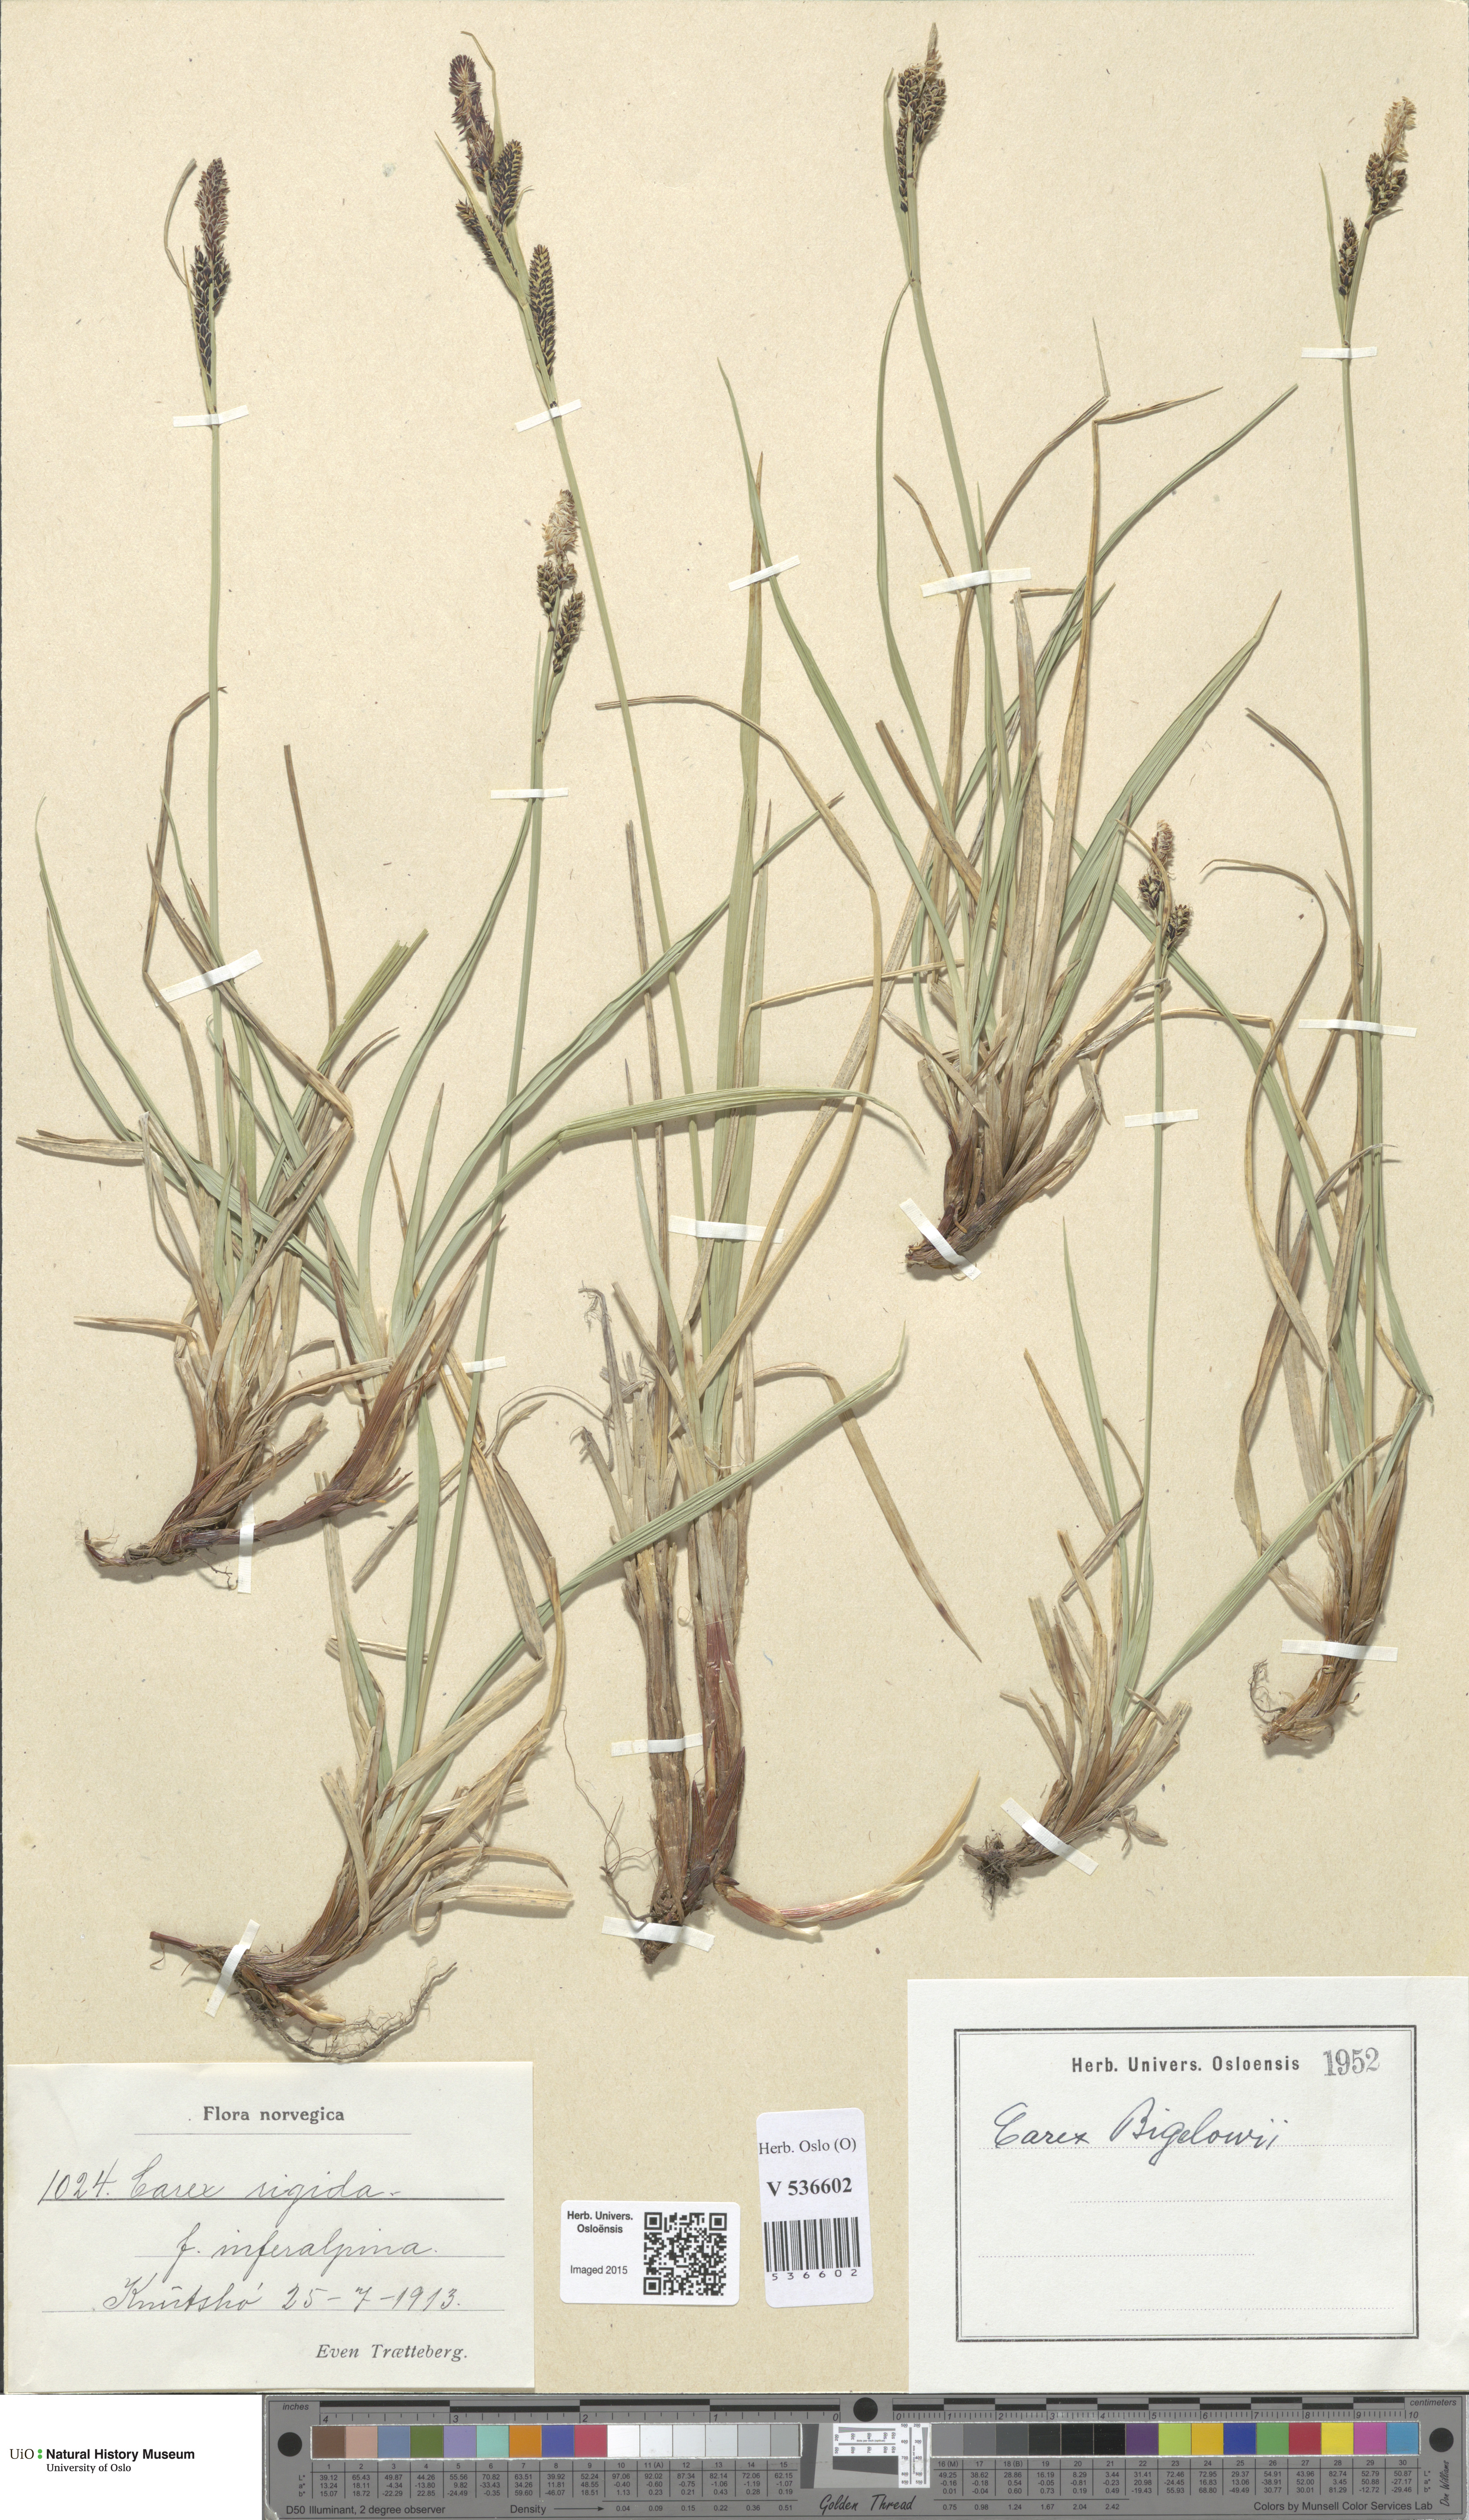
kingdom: Plantae
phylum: Tracheophyta
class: Liliopsida
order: Poales
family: Cyperaceae
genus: Carex
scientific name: Carex bigelowii
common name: Stiff sedge
